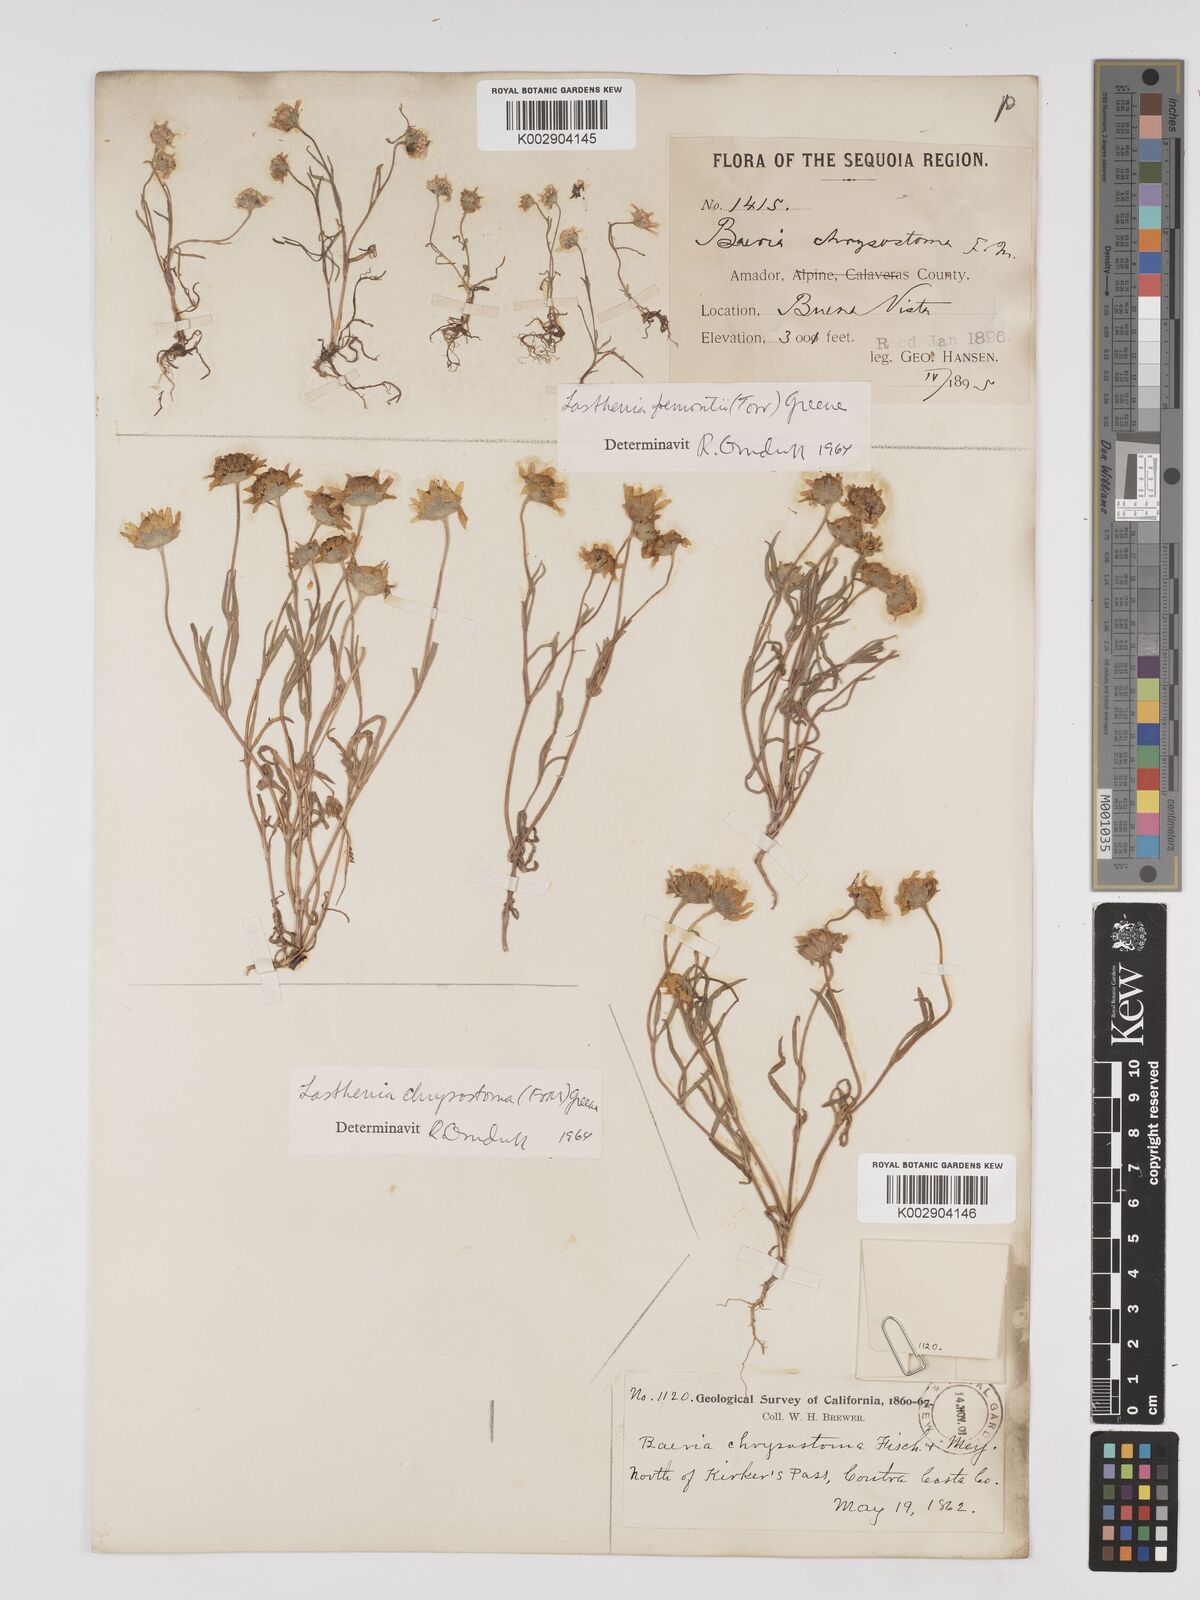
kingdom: Plantae
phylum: Tracheophyta
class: Magnoliopsida
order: Asterales
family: Asteraceae
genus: Lasthenia
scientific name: Lasthenia chrysantha
